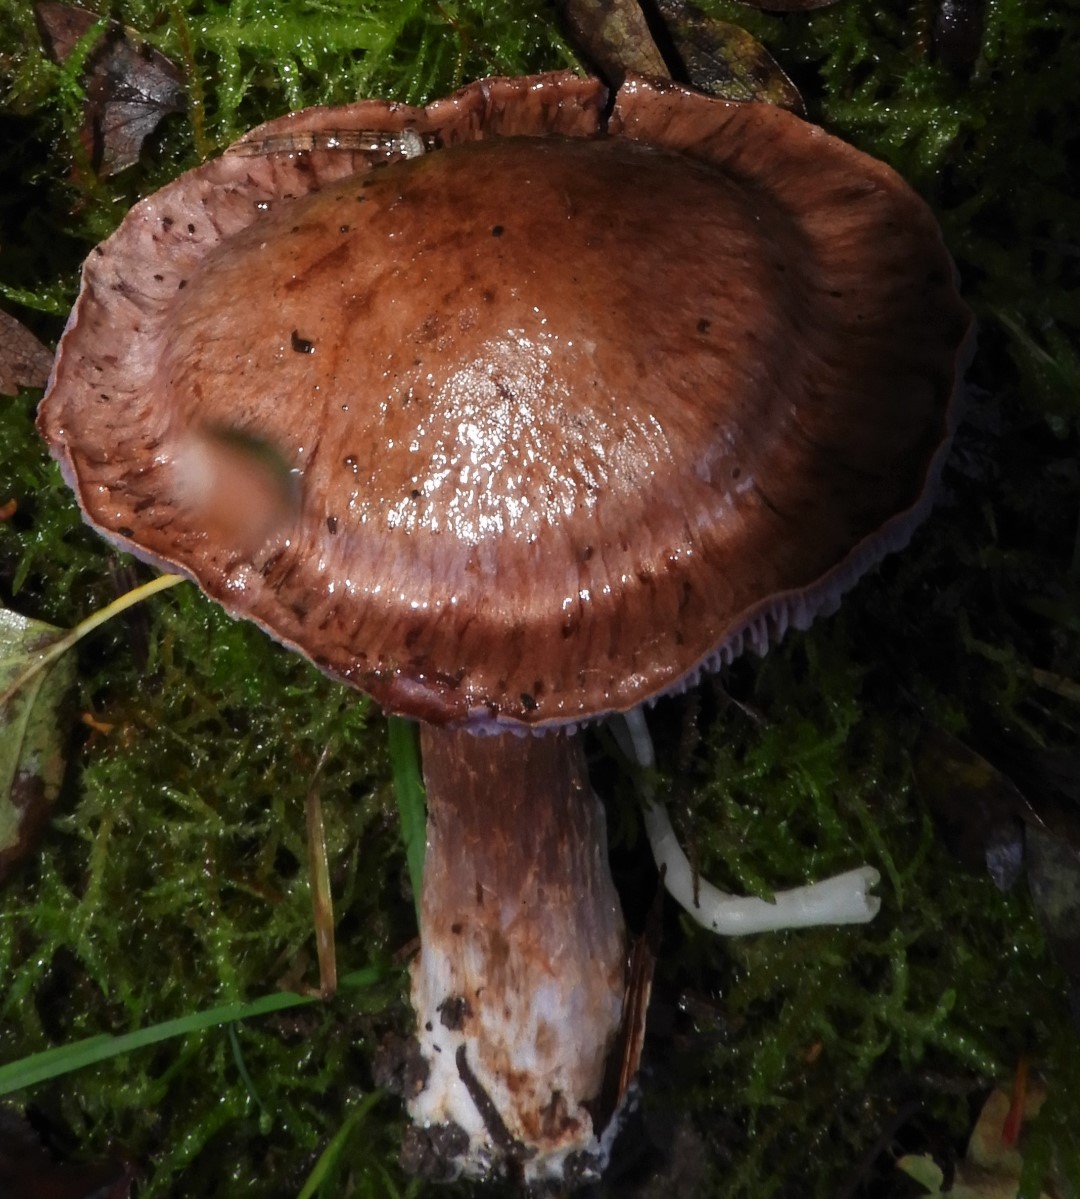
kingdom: Fungi
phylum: Basidiomycota
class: Agaricomycetes
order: Agaricales
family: Cortinariaceae
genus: Cortinarius
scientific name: Cortinarius
